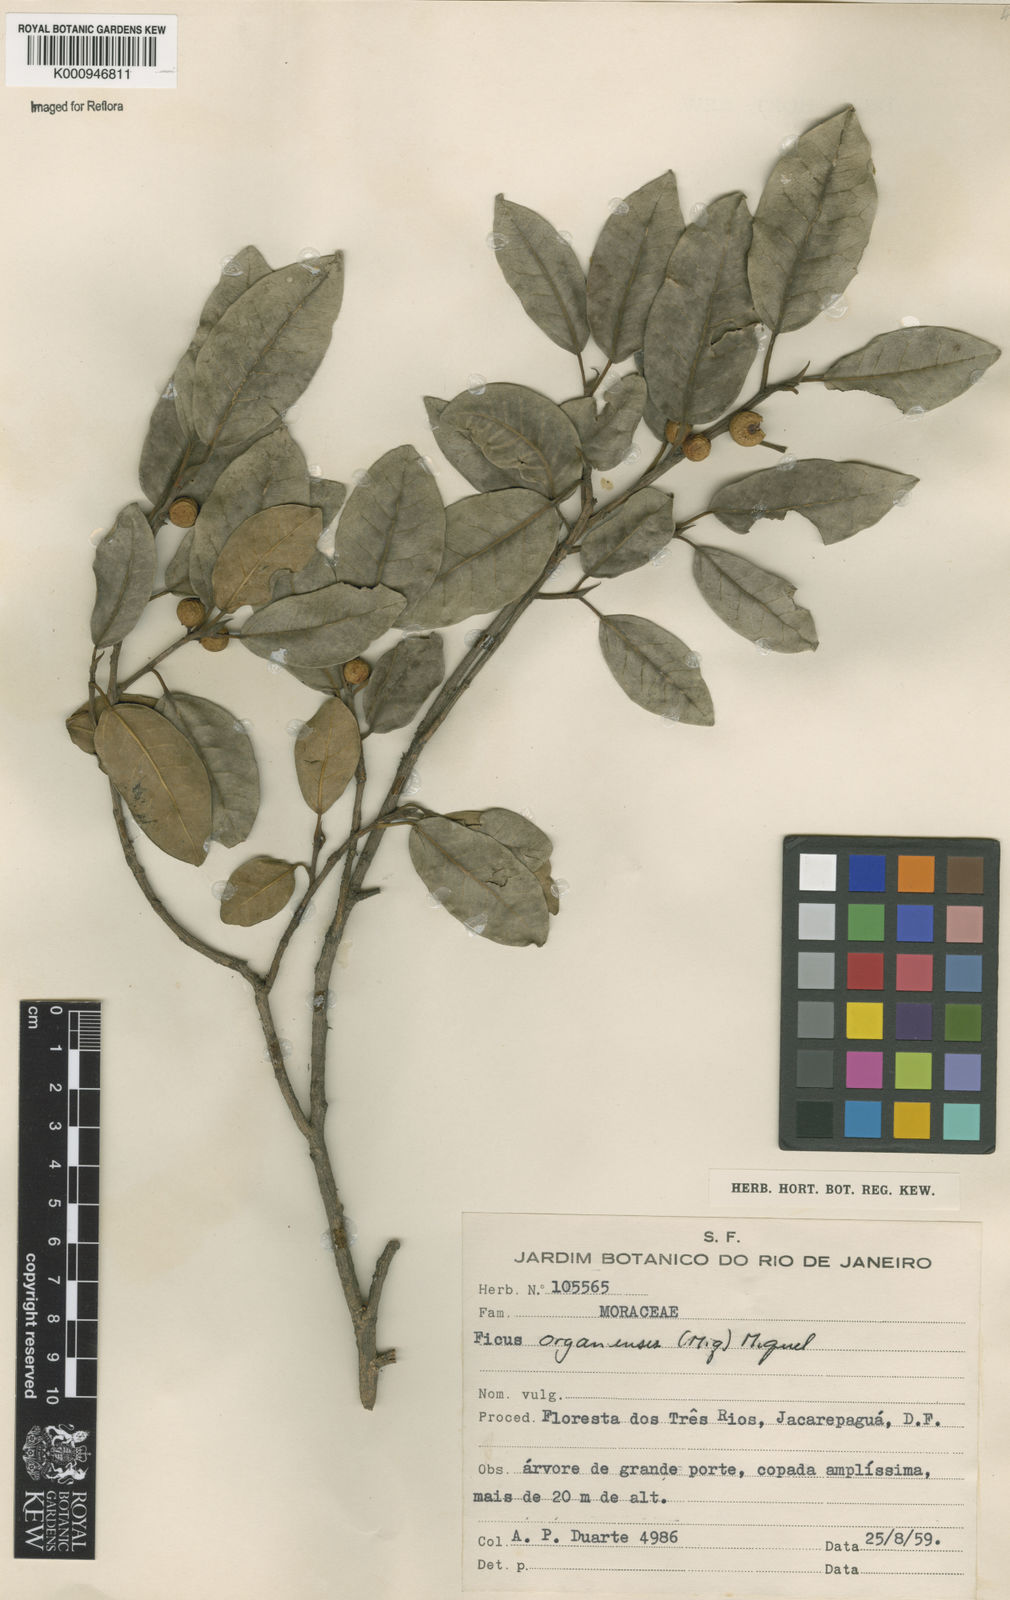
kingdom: Plantae
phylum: Tracheophyta
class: Magnoliopsida
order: Rosales
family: Moraceae
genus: Ficus
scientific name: Ficus organensis
